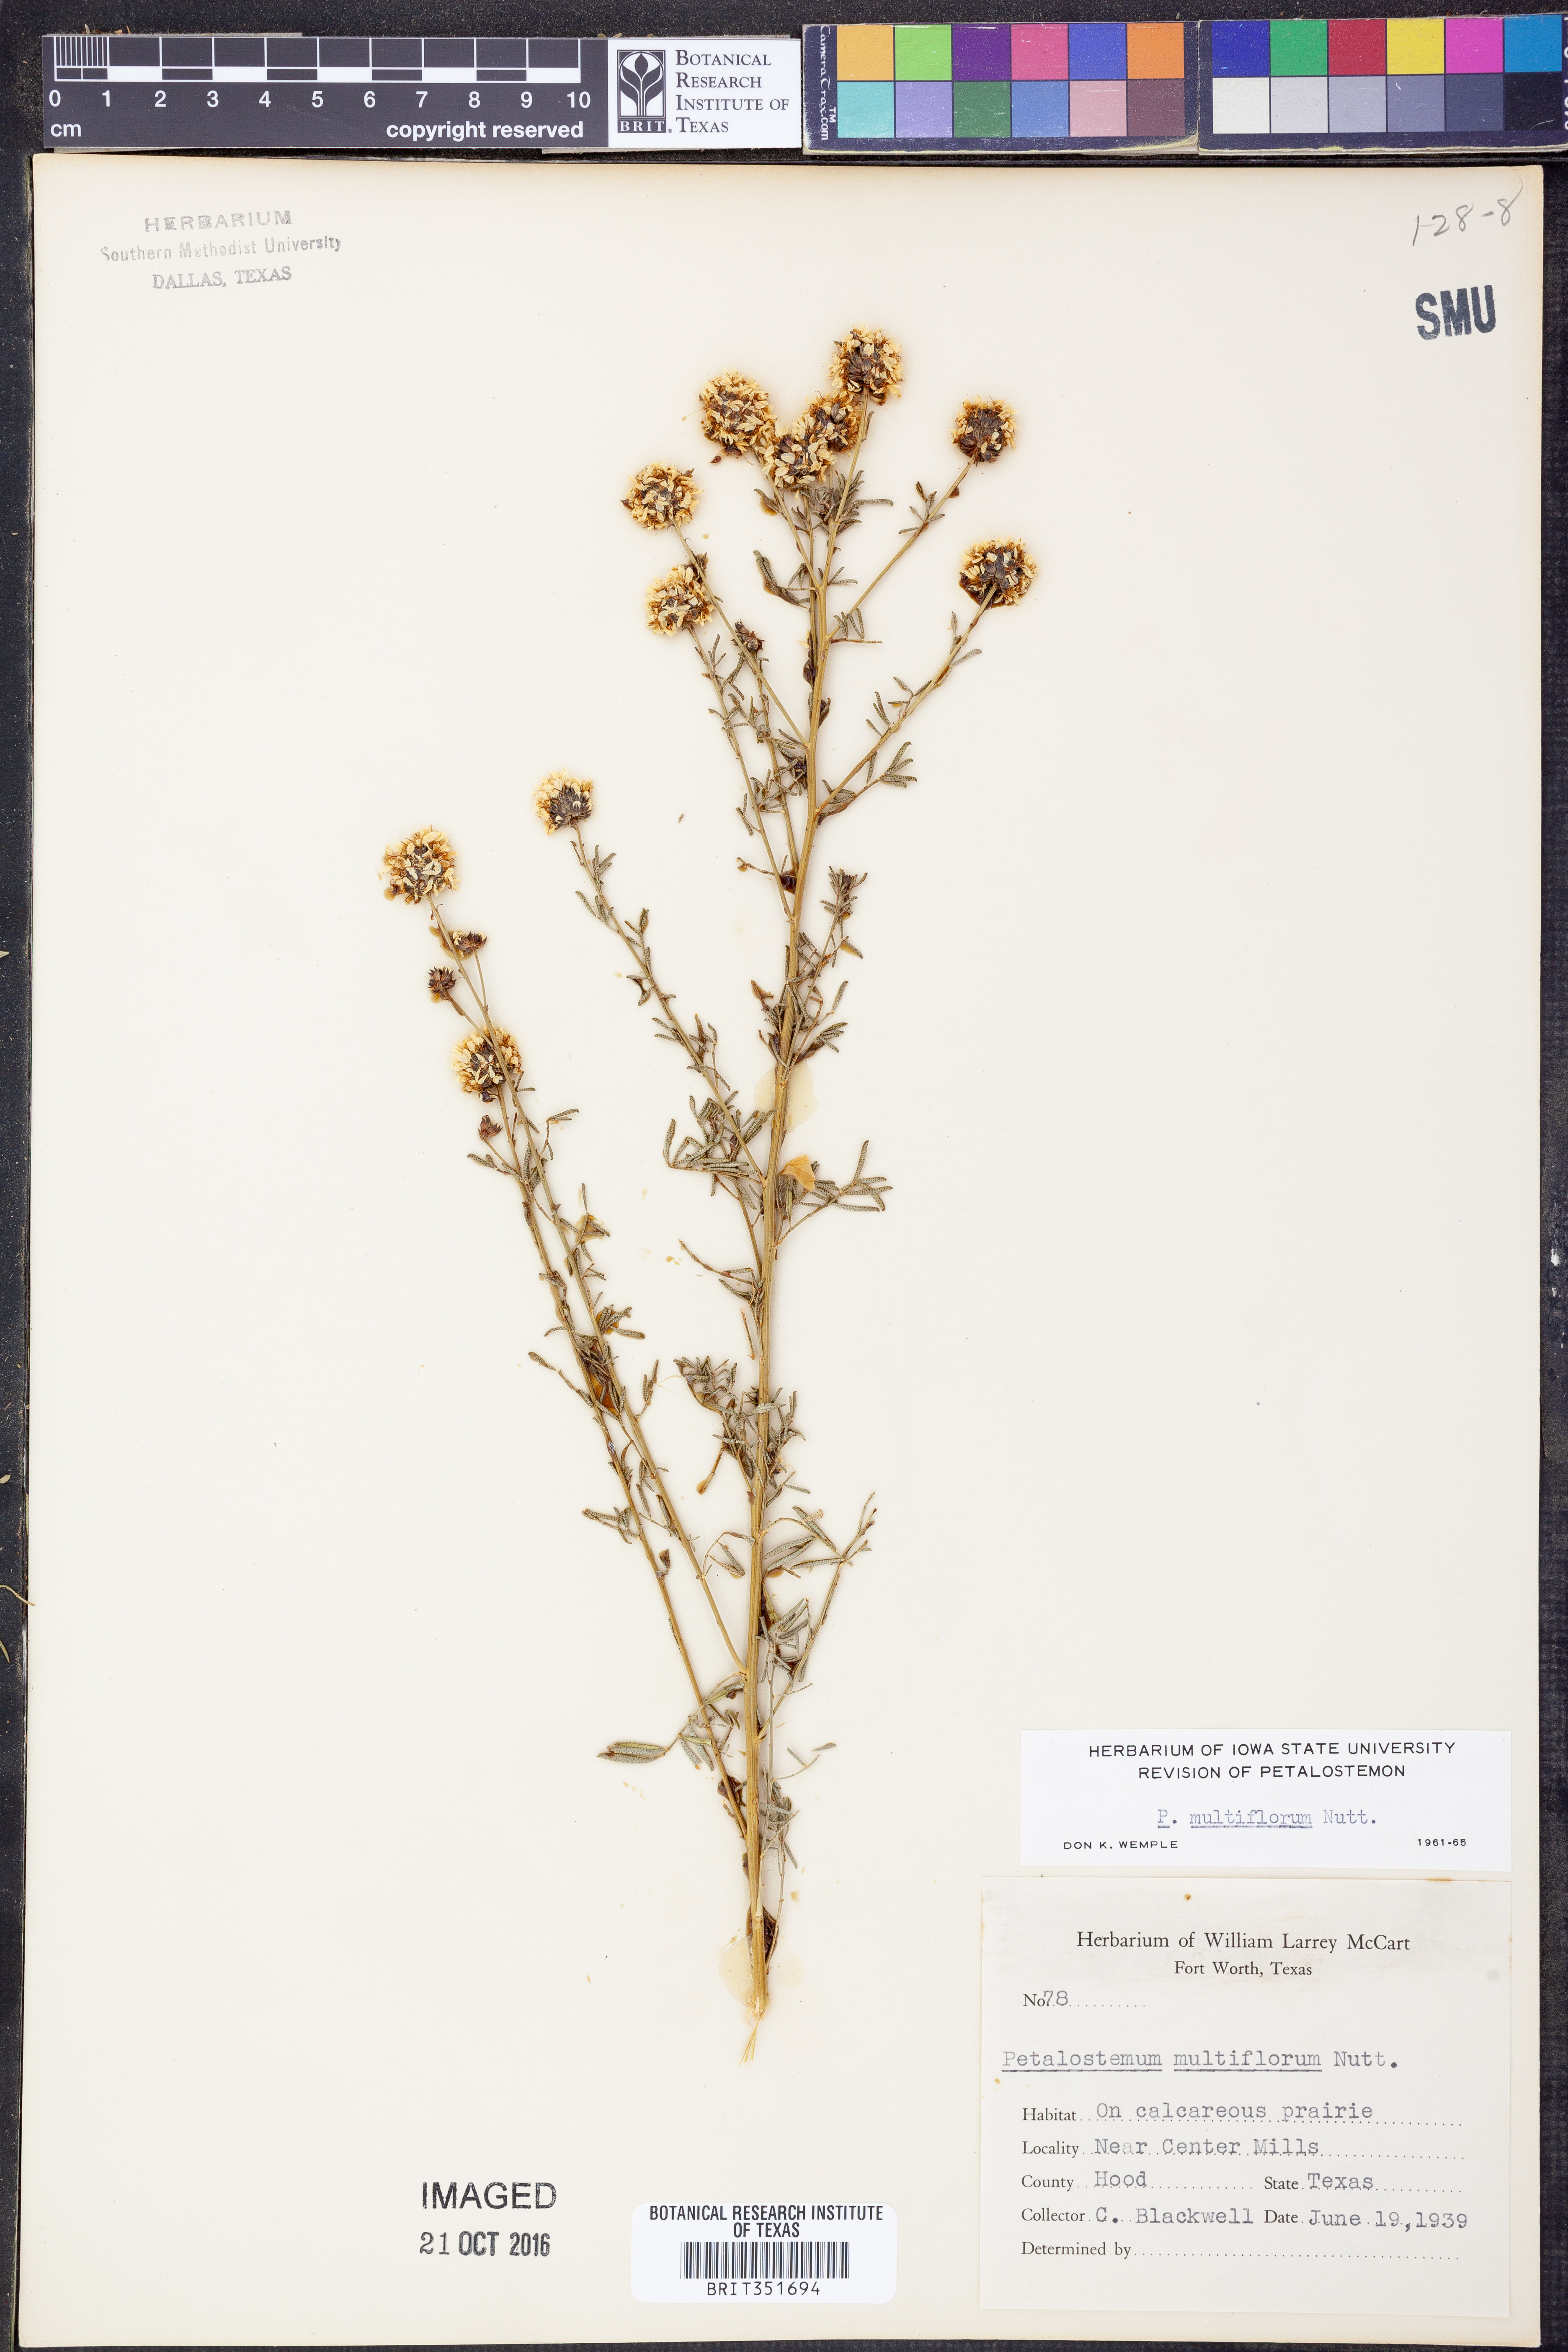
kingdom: Plantae
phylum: Tracheophyta
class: Magnoliopsida
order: Fabales
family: Fabaceae
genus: Dalea
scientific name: Dalea multiflora
